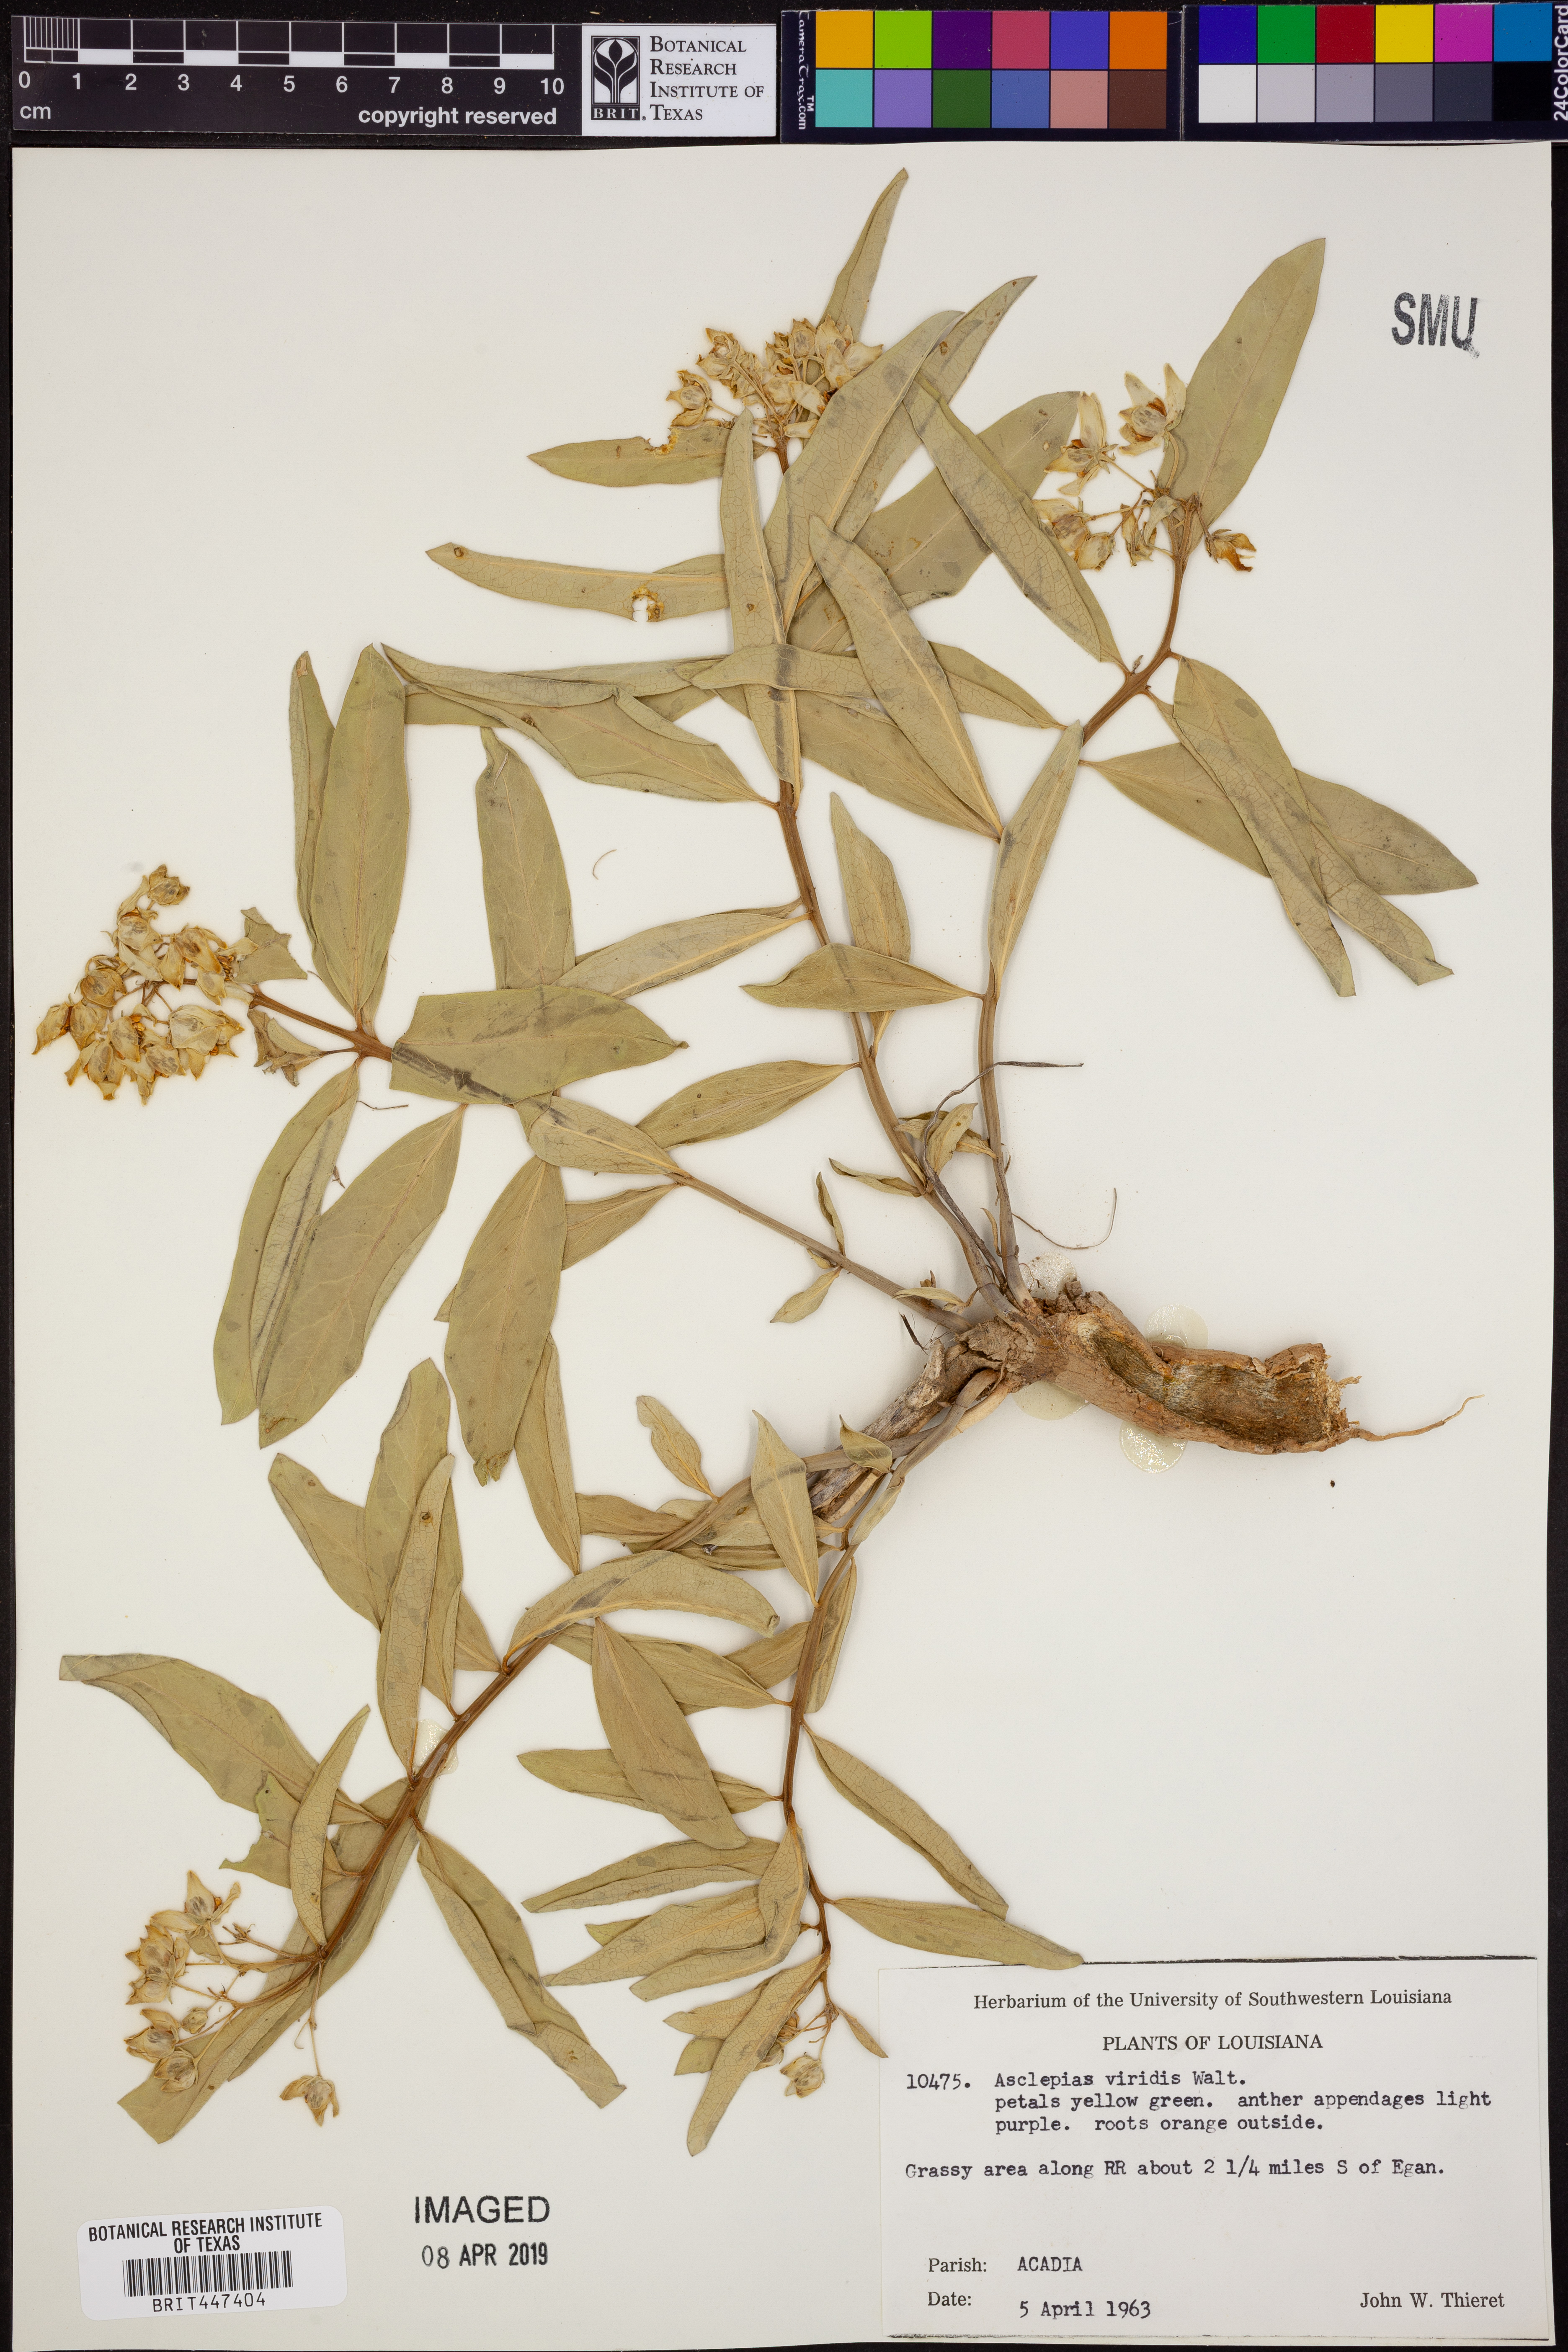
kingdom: Plantae
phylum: Tracheophyta
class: Magnoliopsida
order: Gentianales
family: Apocynaceae
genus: Asclepias
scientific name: Asclepias viridis
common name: Antelope-horns
